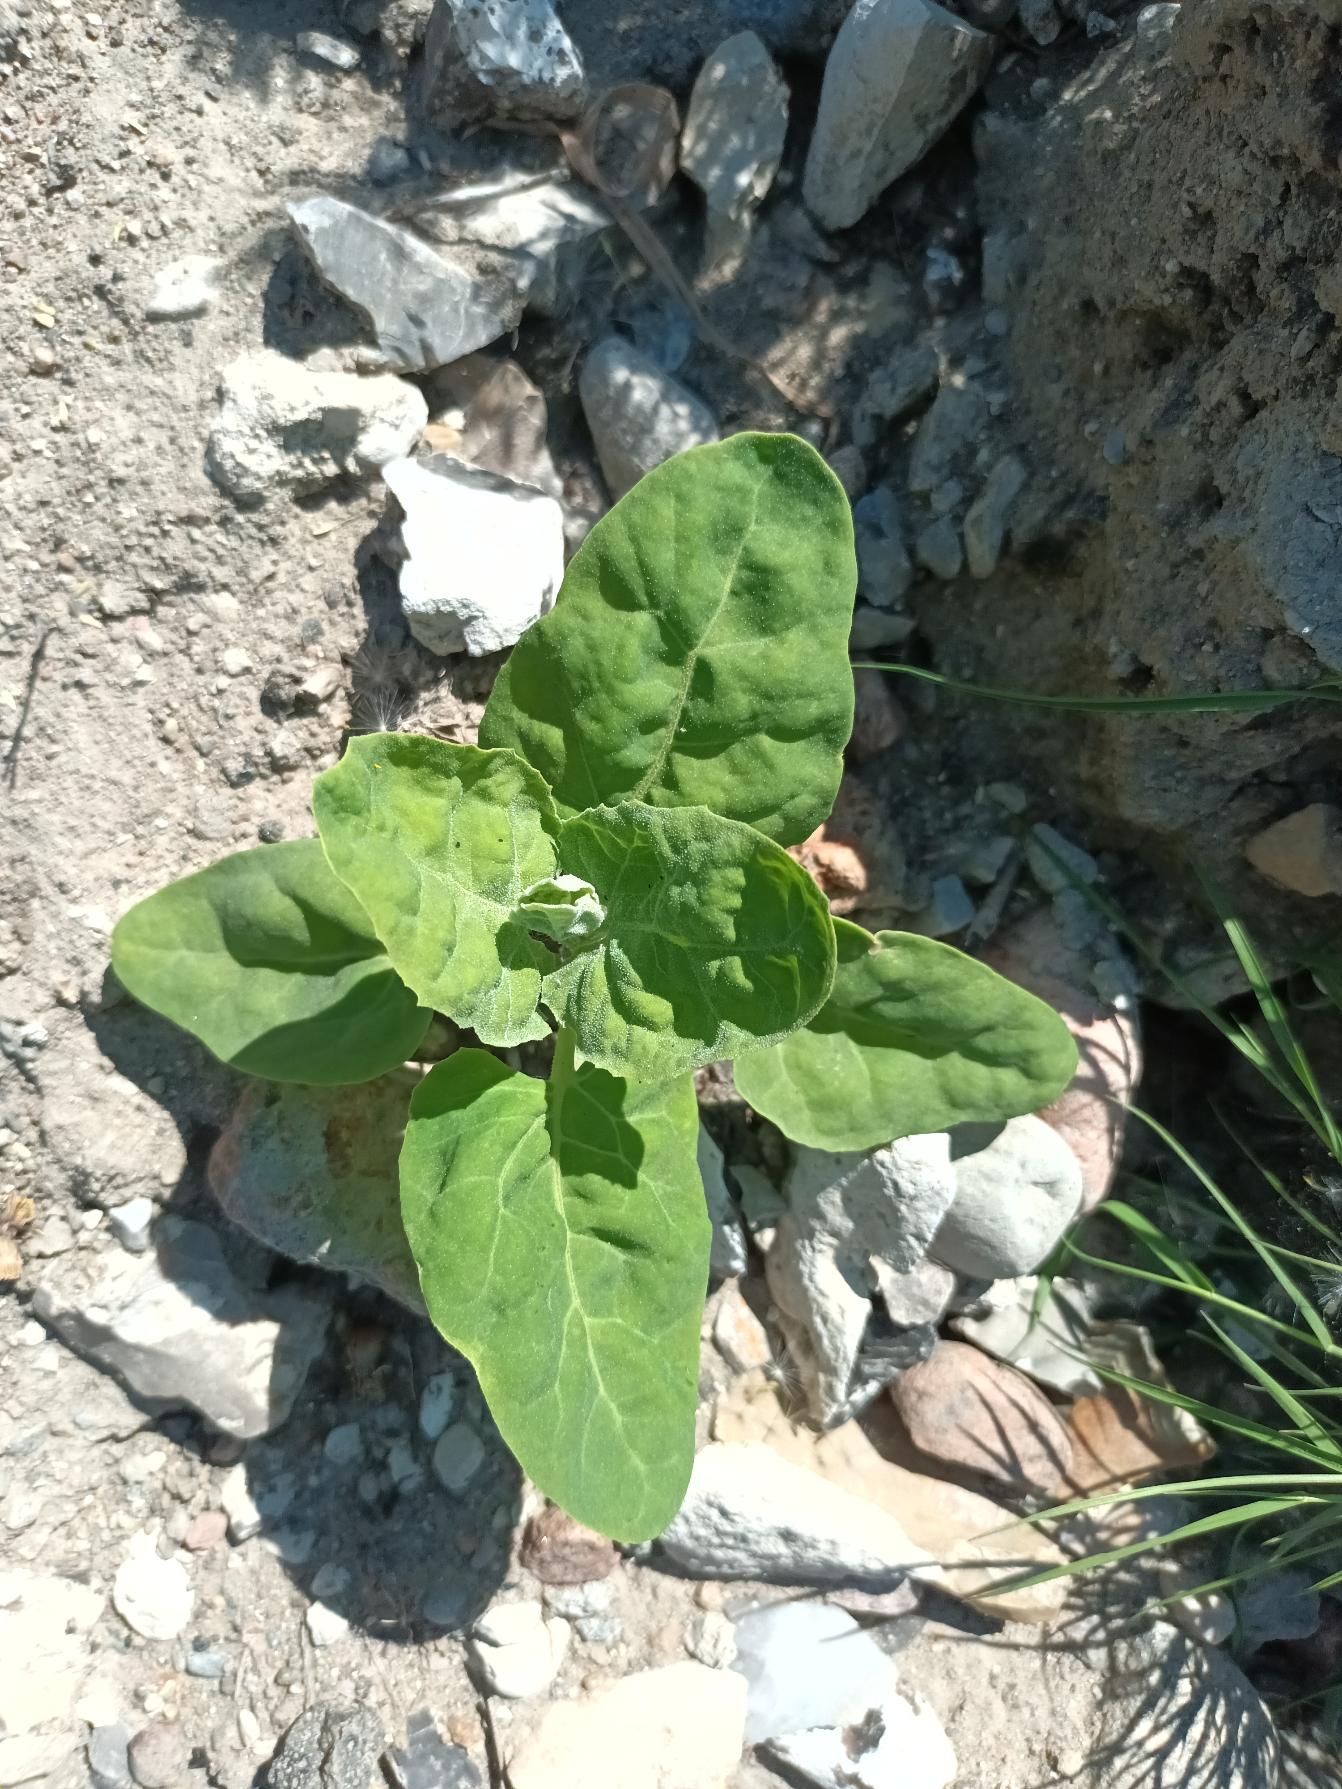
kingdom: Plantae
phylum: Tracheophyta
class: Magnoliopsida
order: Caryophyllales
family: Amaranthaceae
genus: Atriplex
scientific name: Atriplex hortensis
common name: Have-mælde
